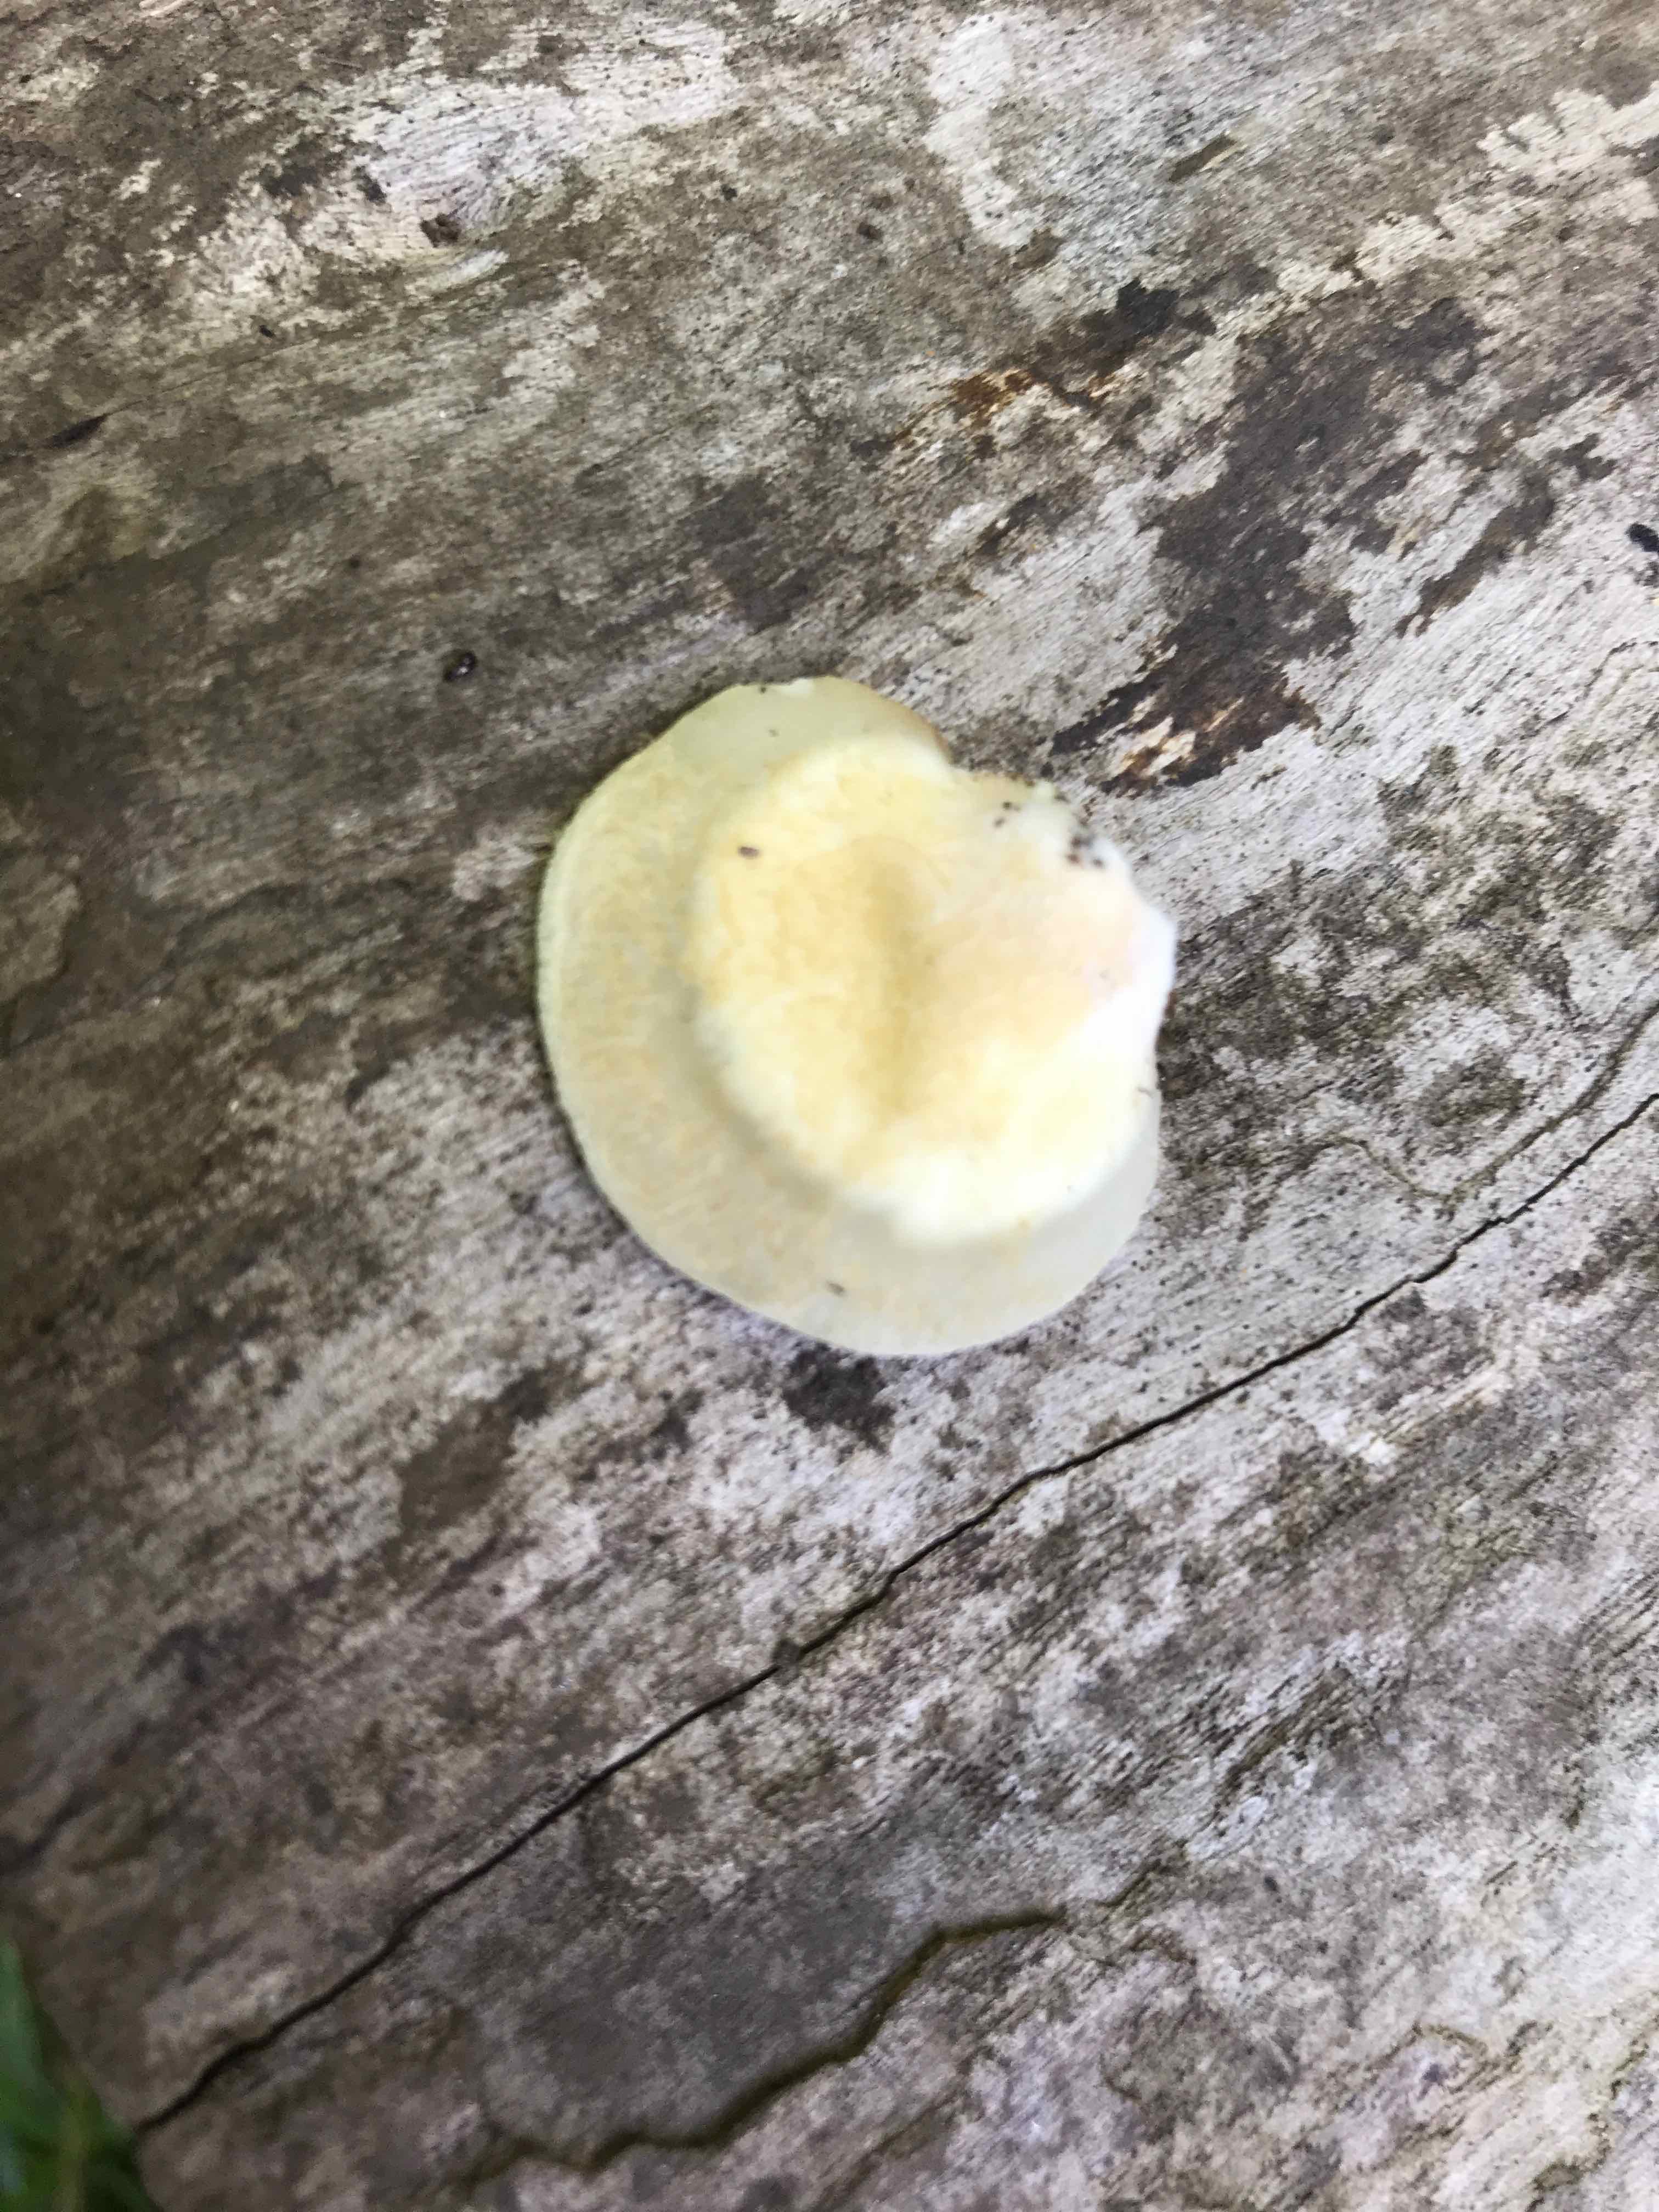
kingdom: Fungi
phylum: Basidiomycota
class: Agaricomycetes
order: Agaricales
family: Crepidotaceae
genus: Crepidotus
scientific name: Crepidotus mollis
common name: blød muslingesvamp
